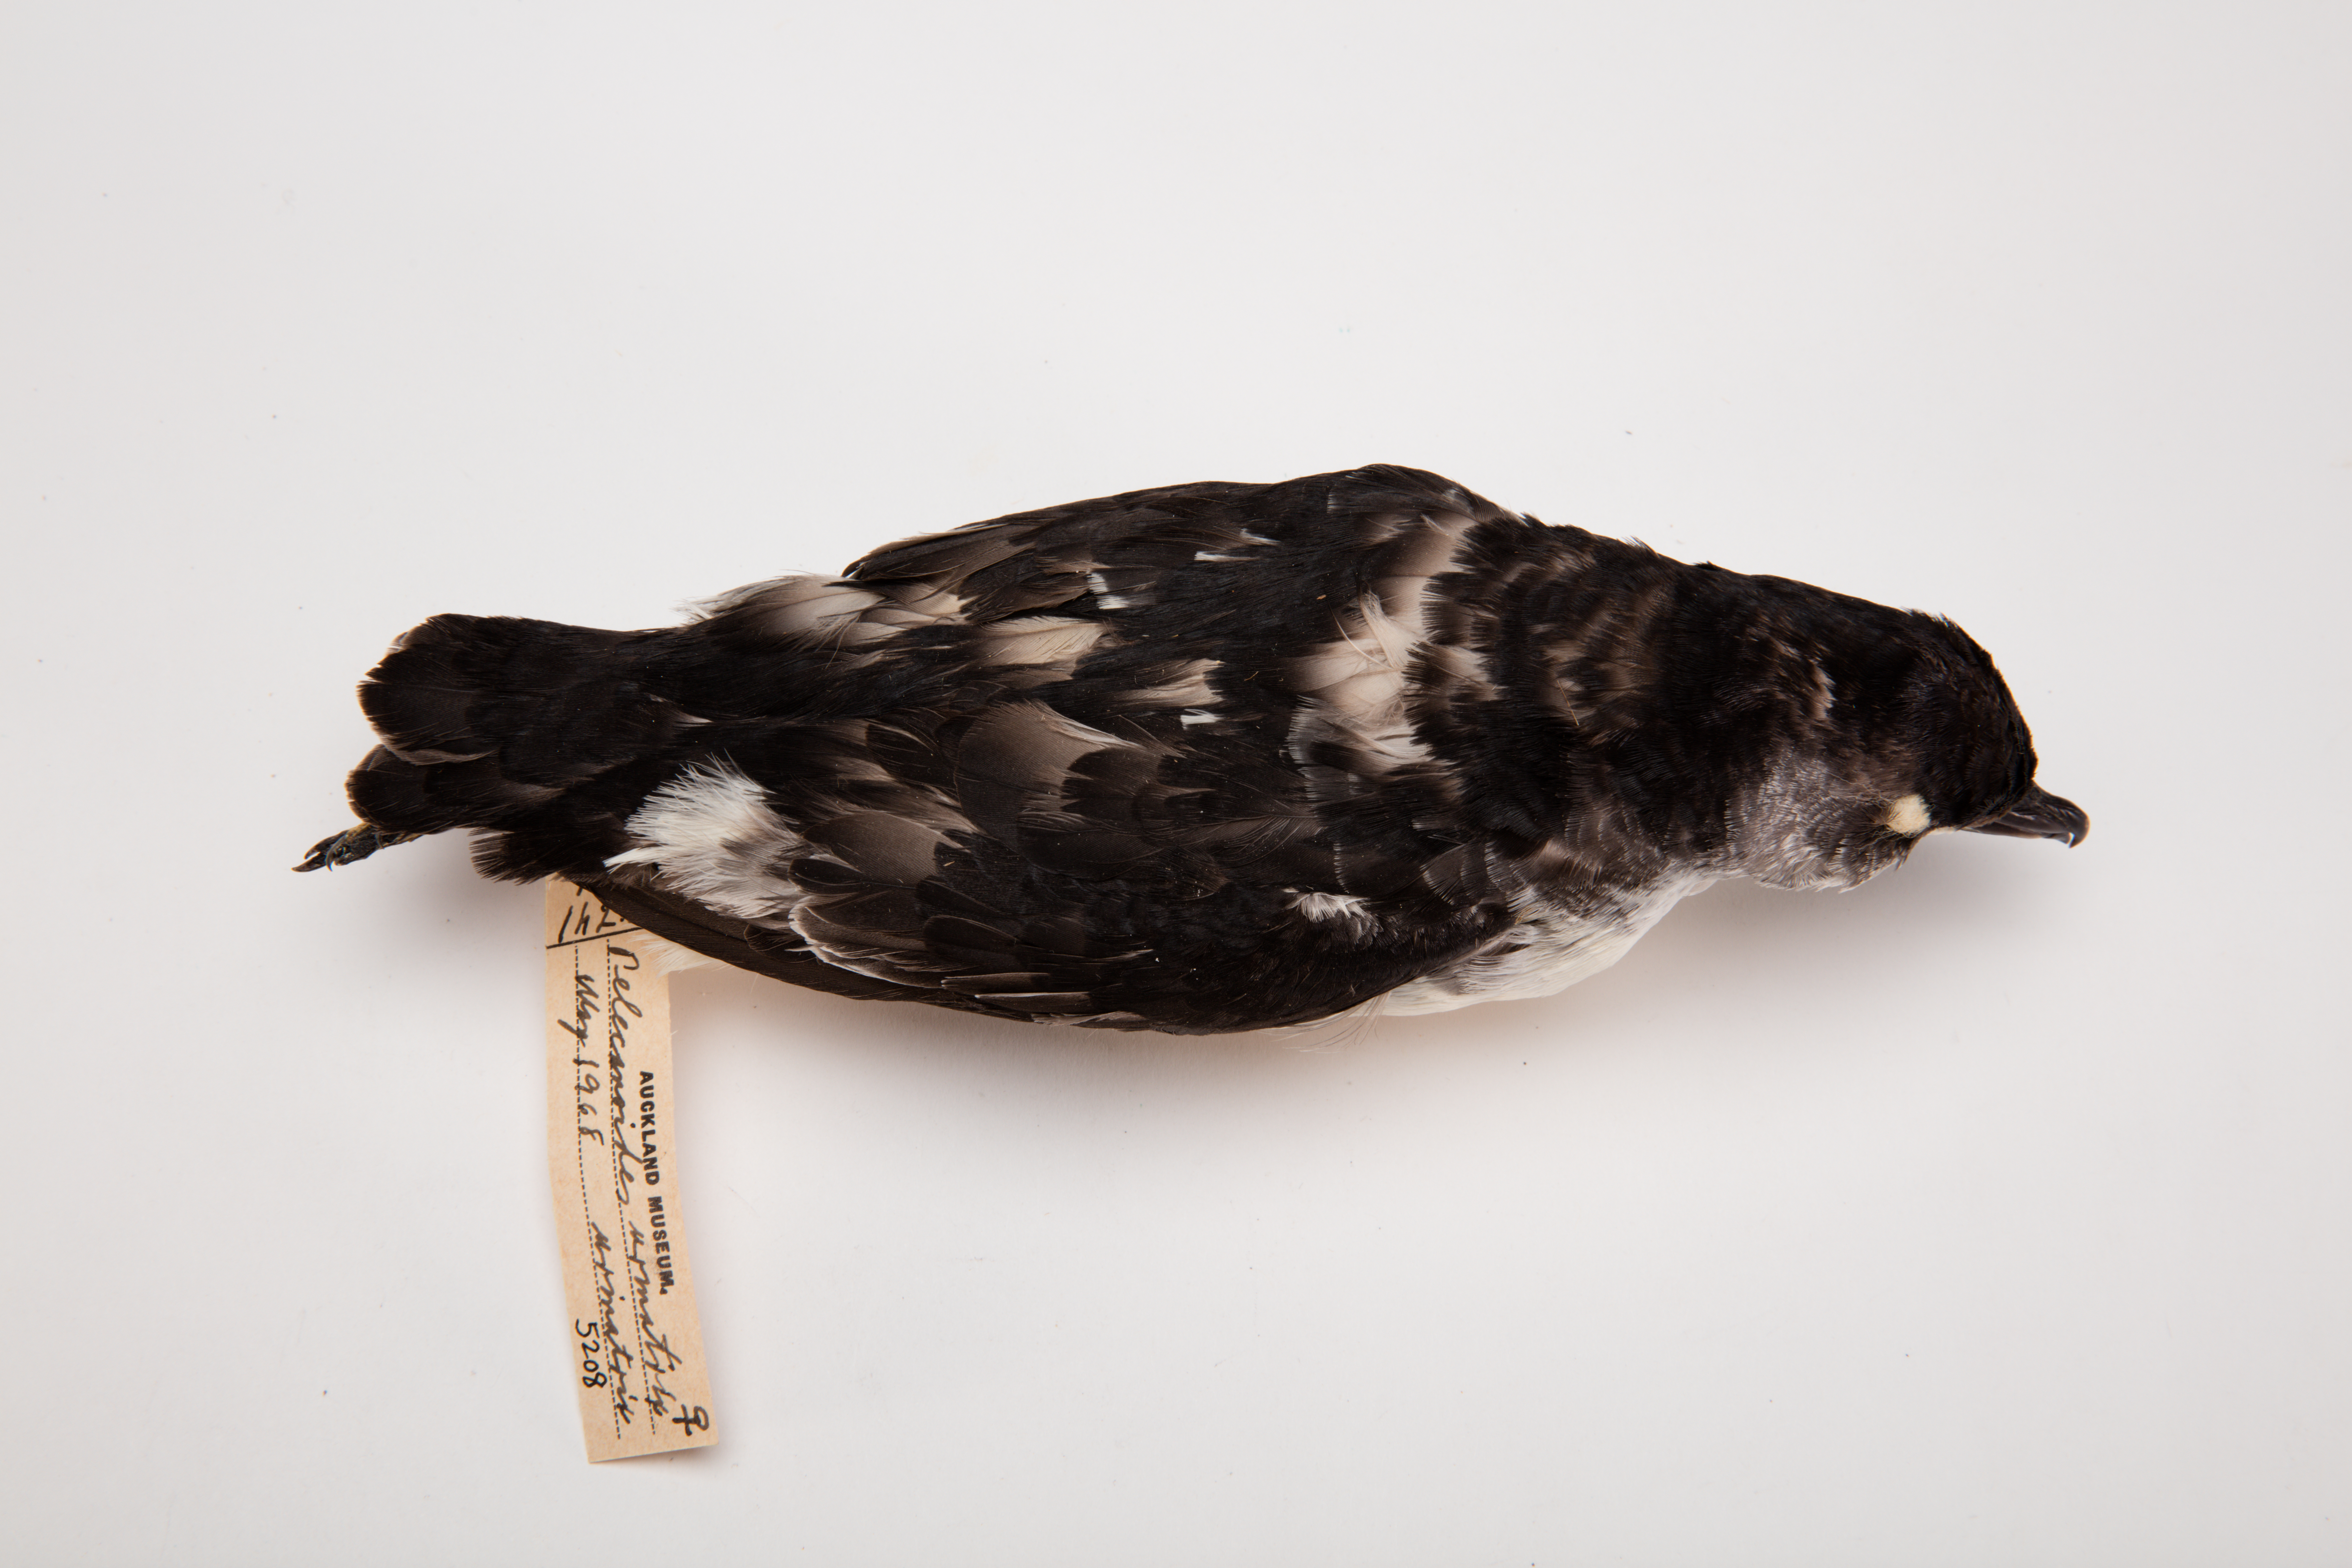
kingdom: Animalia
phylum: Chordata
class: Aves
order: Procellariiformes
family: Pelecanoididae
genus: Pelecanoides
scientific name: Pelecanoides urinatrix
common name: Common diving-petrel
